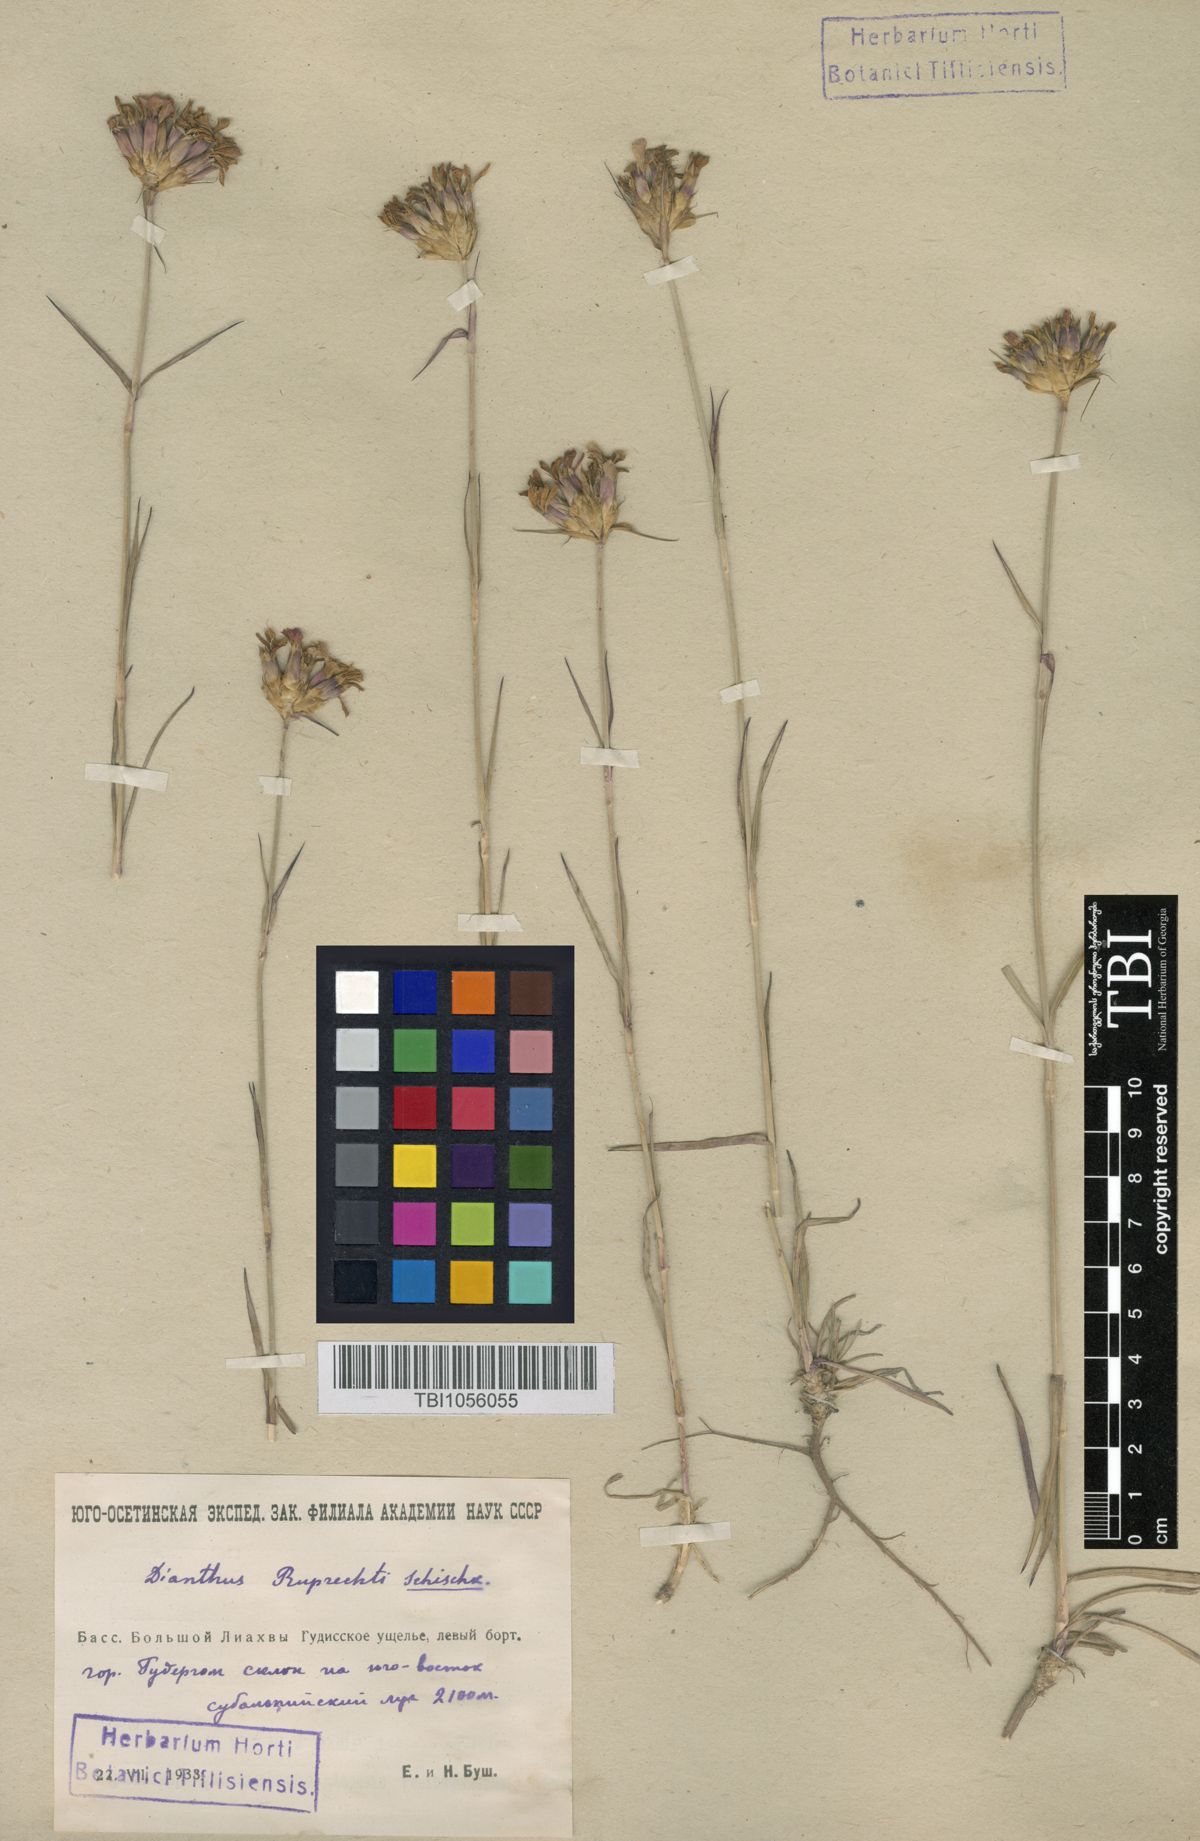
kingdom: Plantae
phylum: Tracheophyta
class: Magnoliopsida
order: Caryophyllales
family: Caryophyllaceae
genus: Dianthus
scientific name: Dianthus ruprechtii
